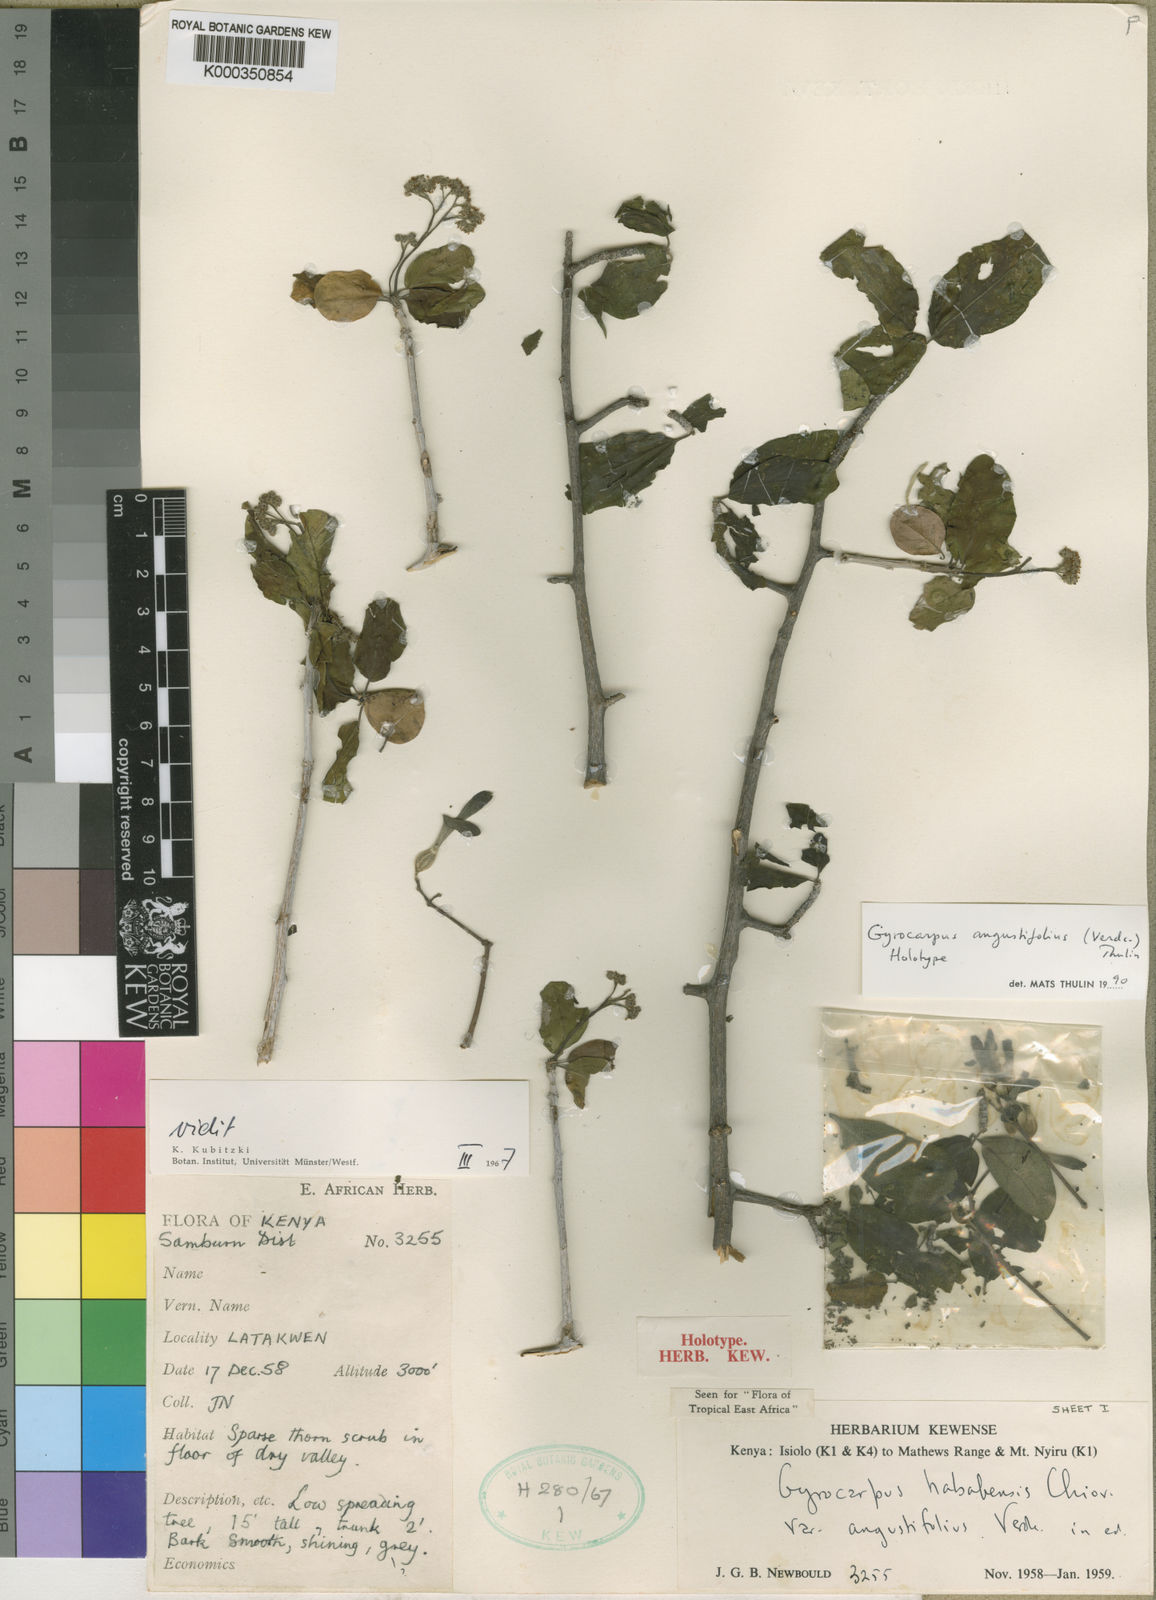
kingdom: Plantae
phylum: Tracheophyta
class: Magnoliopsida
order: Laurales
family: Hernandiaceae
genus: Gyrocarpus
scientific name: Gyrocarpus angustifolius
